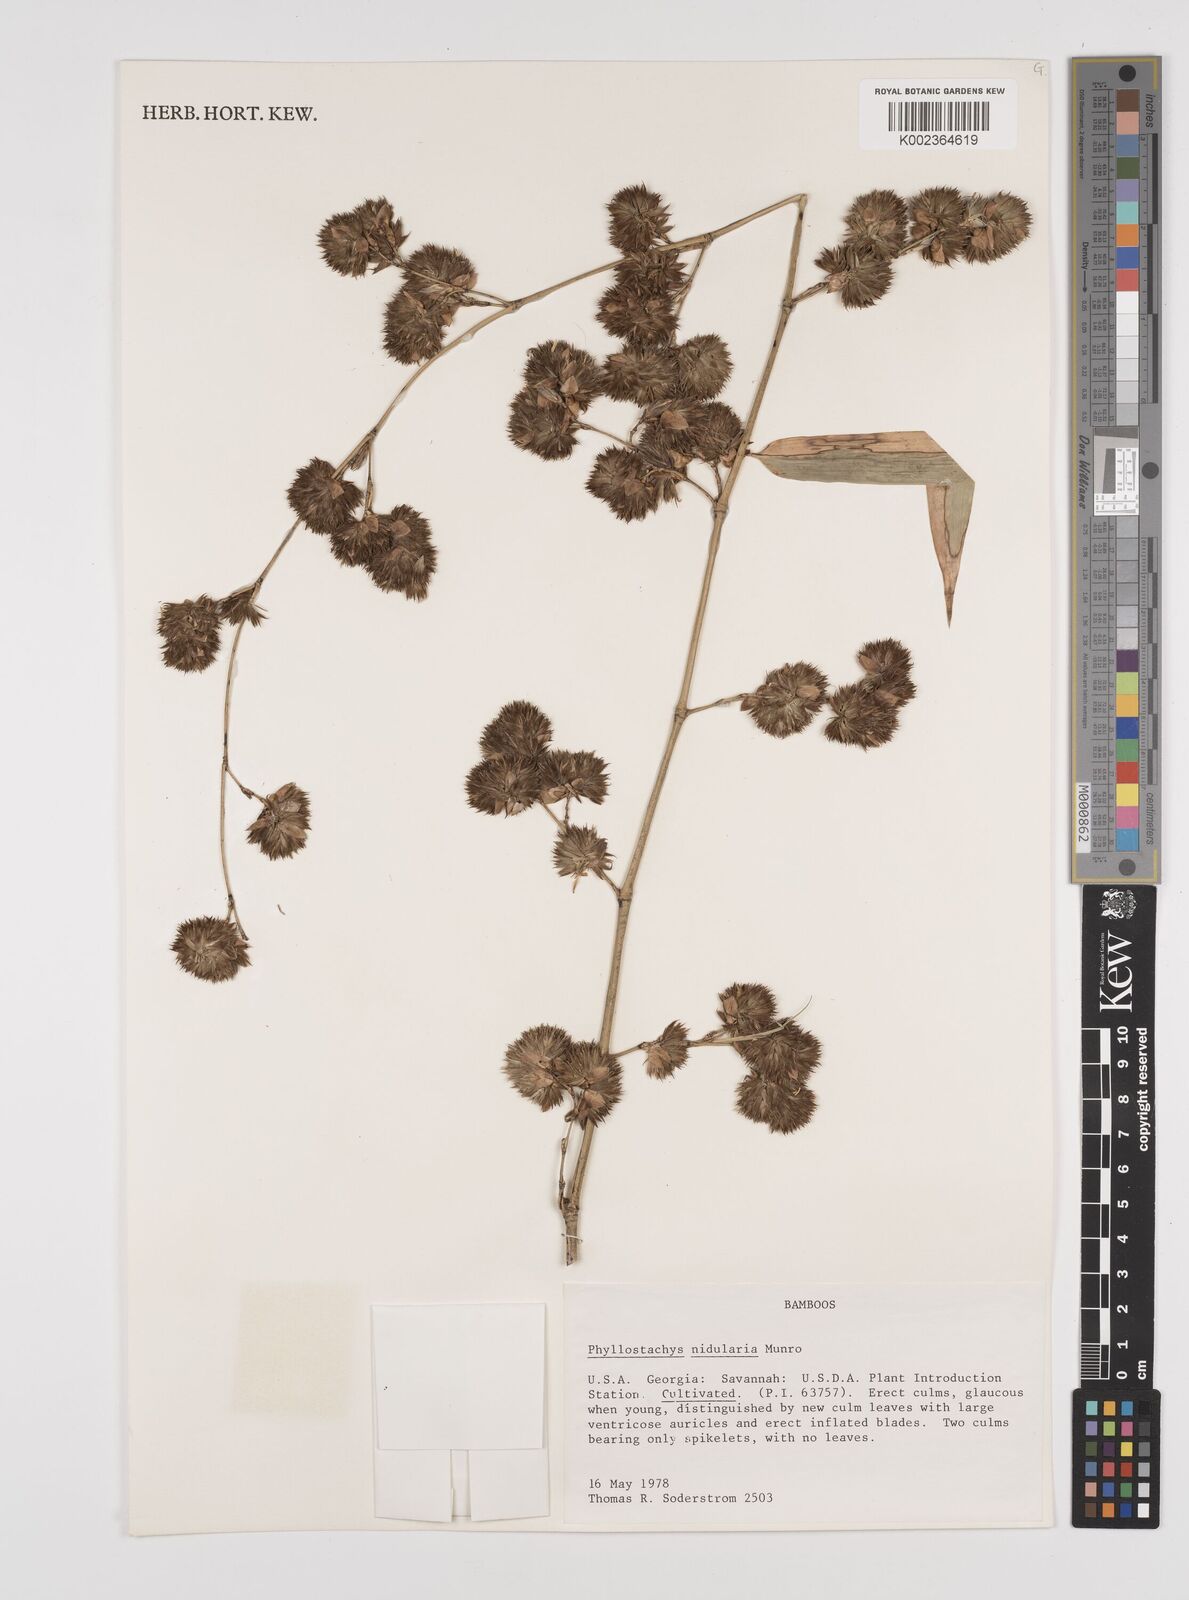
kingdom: Plantae
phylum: Tracheophyta
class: Liliopsida
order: Poales
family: Poaceae
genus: Phyllostachys
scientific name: Phyllostachys nidularia
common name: Broom bamboo
